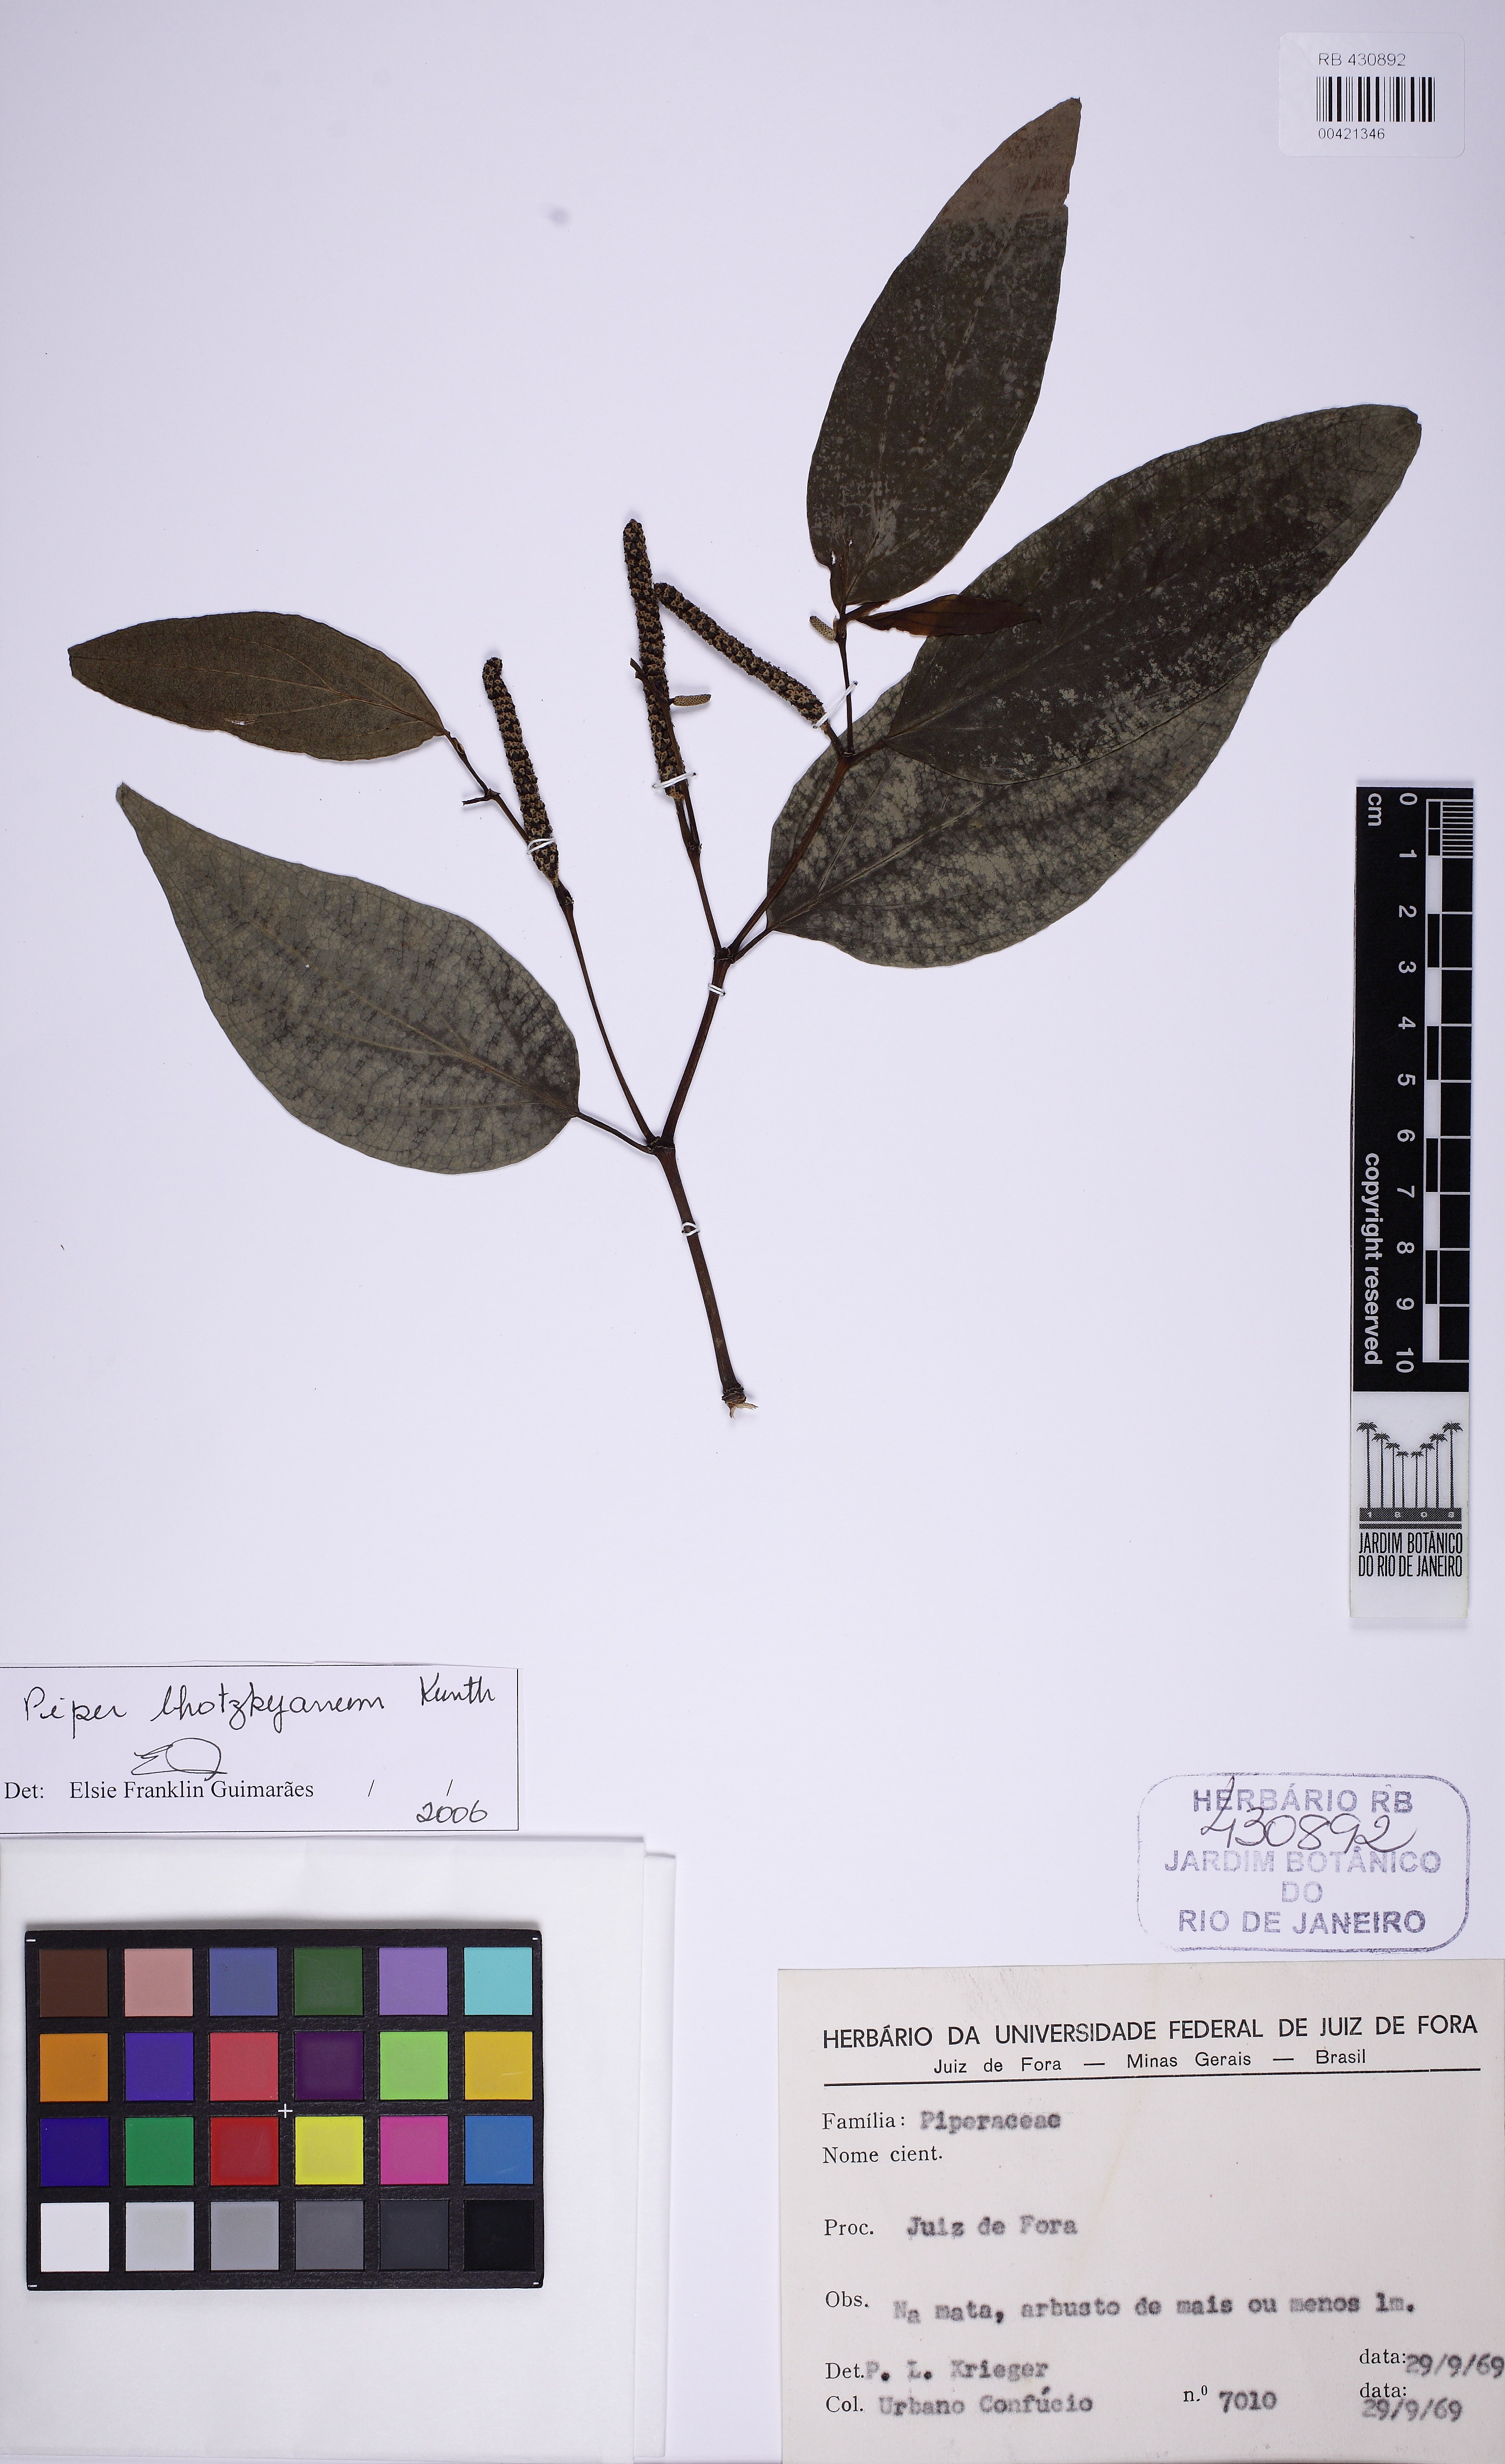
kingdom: Plantae
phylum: Tracheophyta
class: Magnoliopsida
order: Piperales
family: Piperaceae
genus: Piper
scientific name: Piper lhotzkyanum
